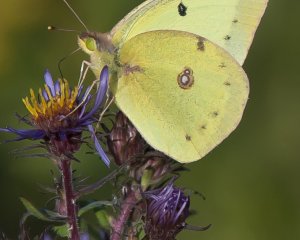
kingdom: Animalia
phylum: Arthropoda
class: Insecta
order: Lepidoptera
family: Pieridae
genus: Colias
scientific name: Colias philodice
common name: Clouded Sulphur
